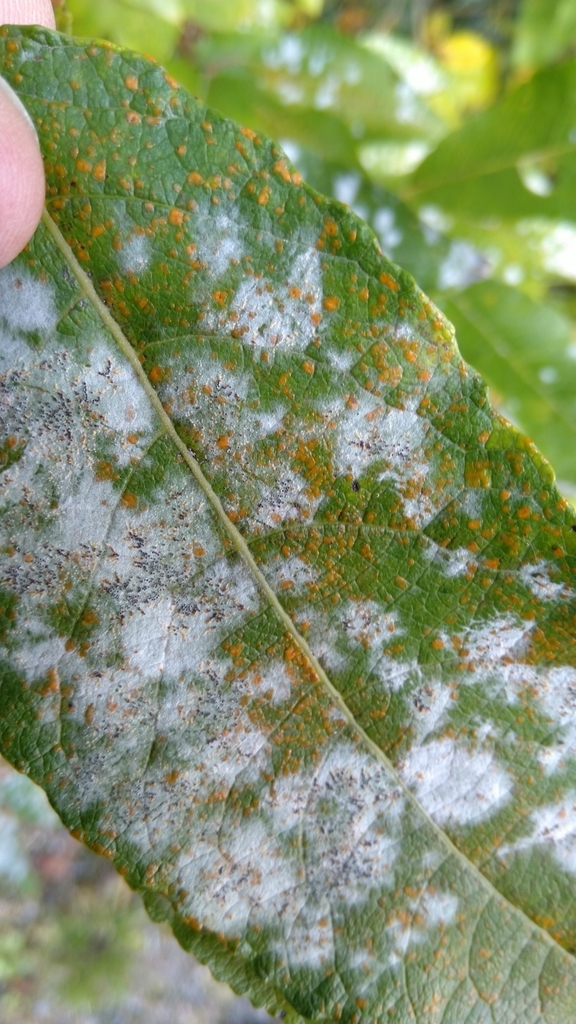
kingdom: Fungi
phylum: Ascomycota
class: Leotiomycetes
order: Helotiales
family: Erysiphaceae
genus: Erysiphe
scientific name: Erysiphe adunca
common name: Willow mildew
